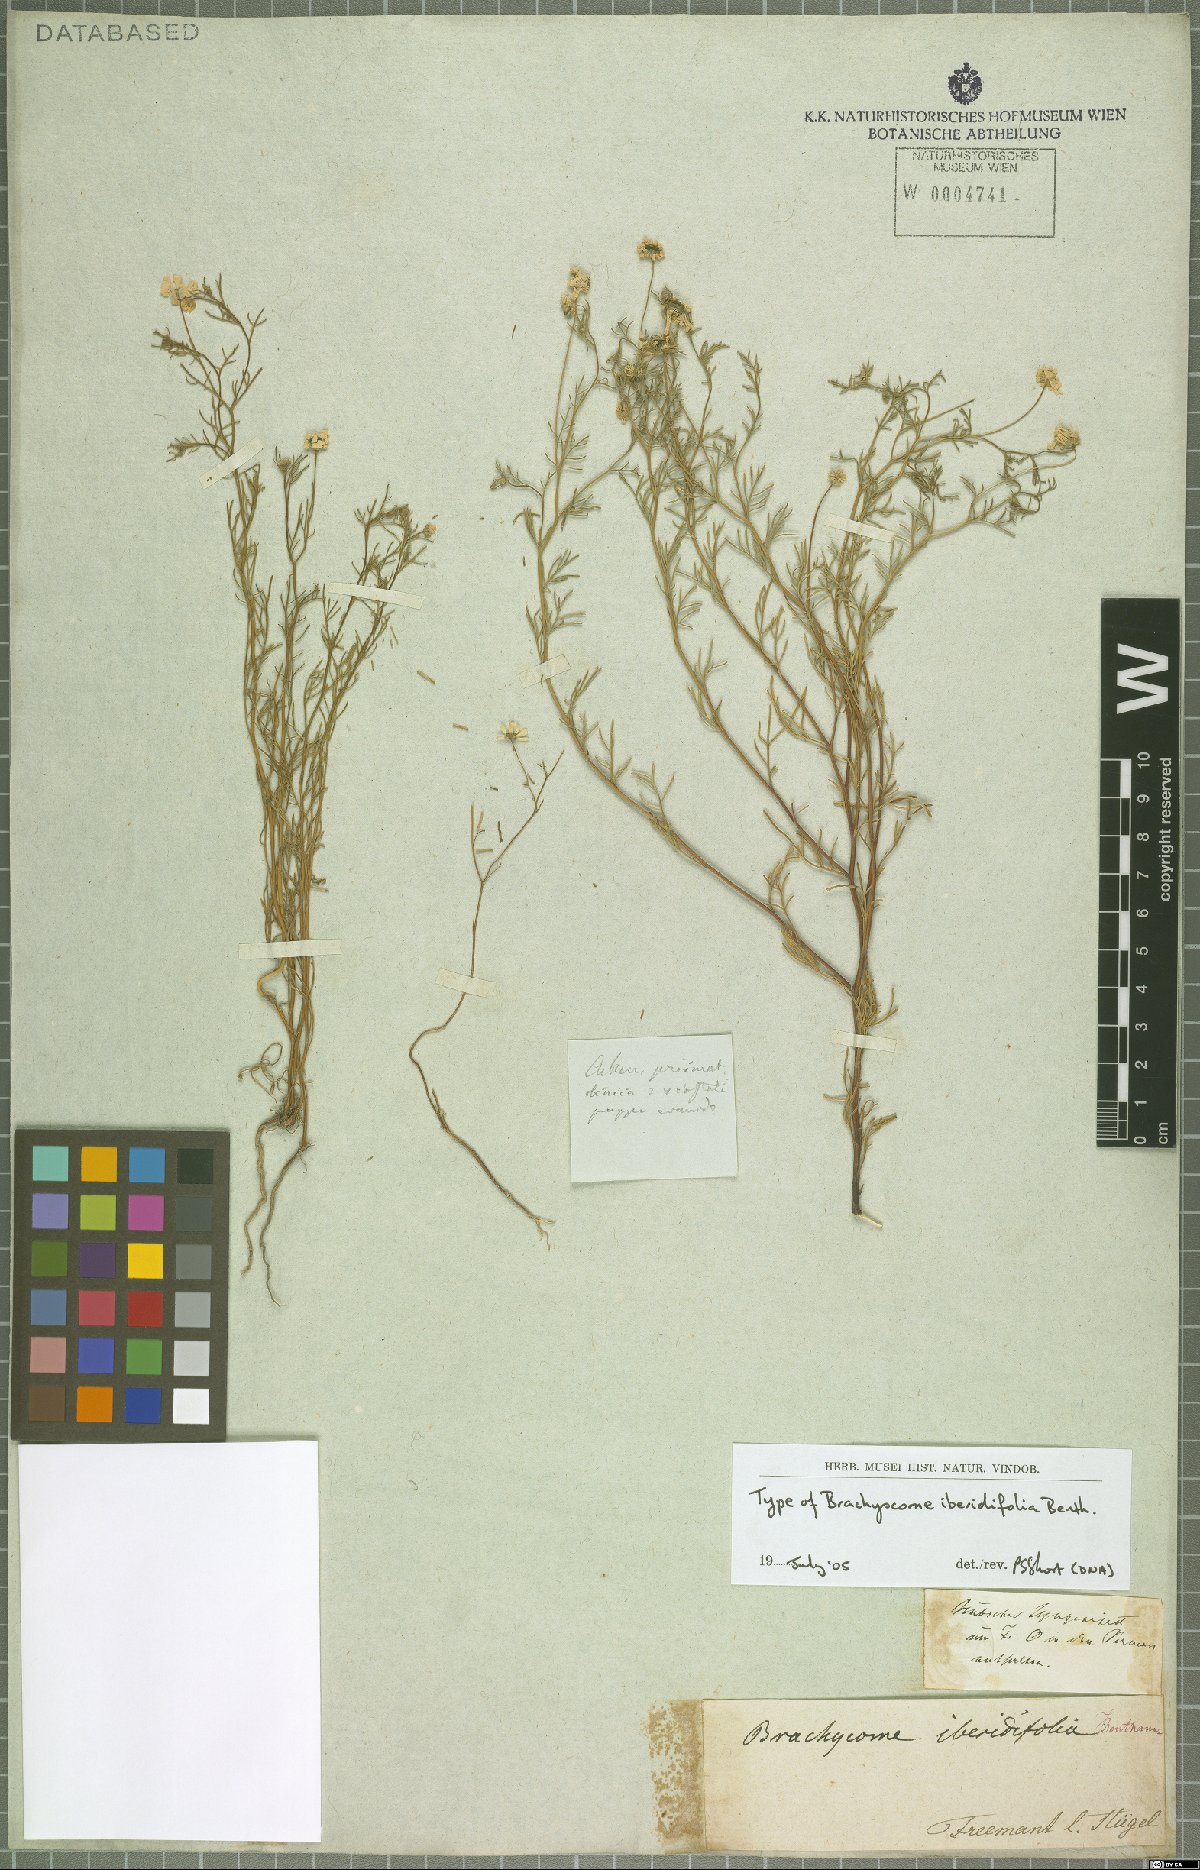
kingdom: Plantae
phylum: Tracheophyta
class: Magnoliopsida
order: Asterales
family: Asteraceae
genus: Brachyscome
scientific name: Brachyscome iberidifolia
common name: Swan river daisy
